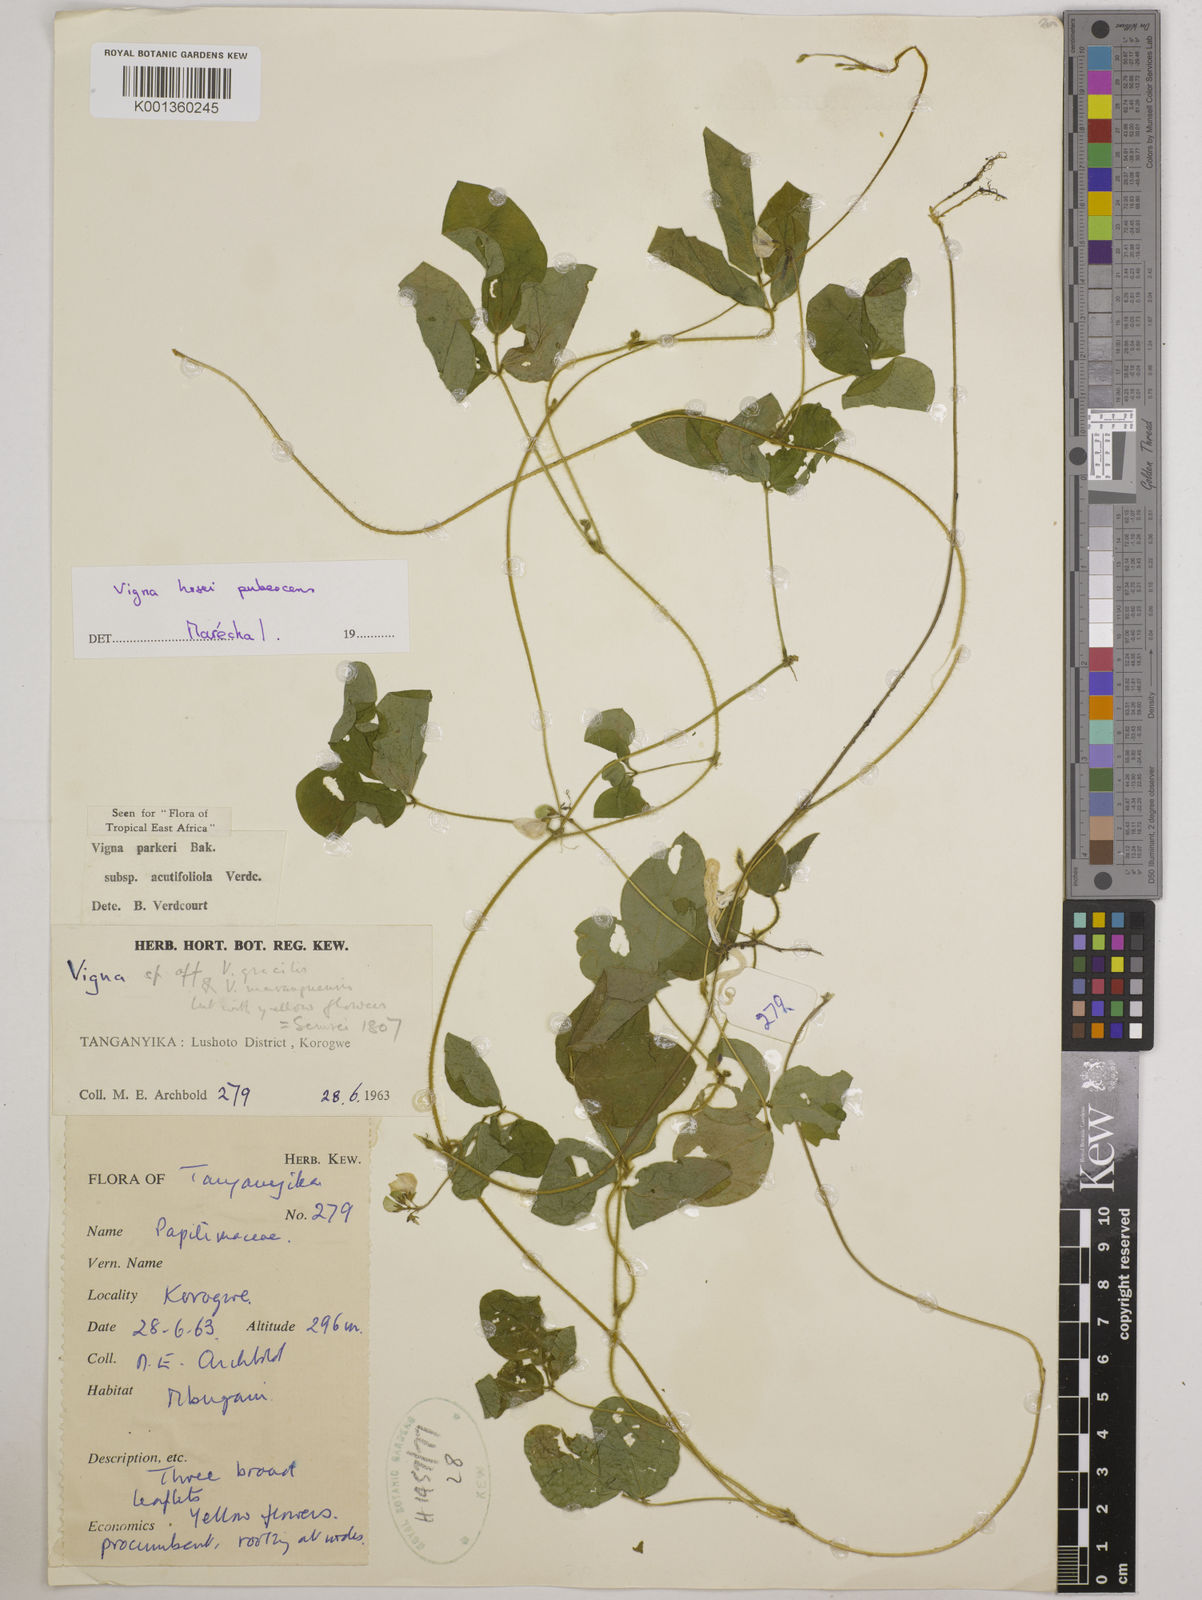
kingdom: Plantae
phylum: Tracheophyta
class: Magnoliopsida
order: Fabales
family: Fabaceae
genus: Vigna
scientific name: Vigna
